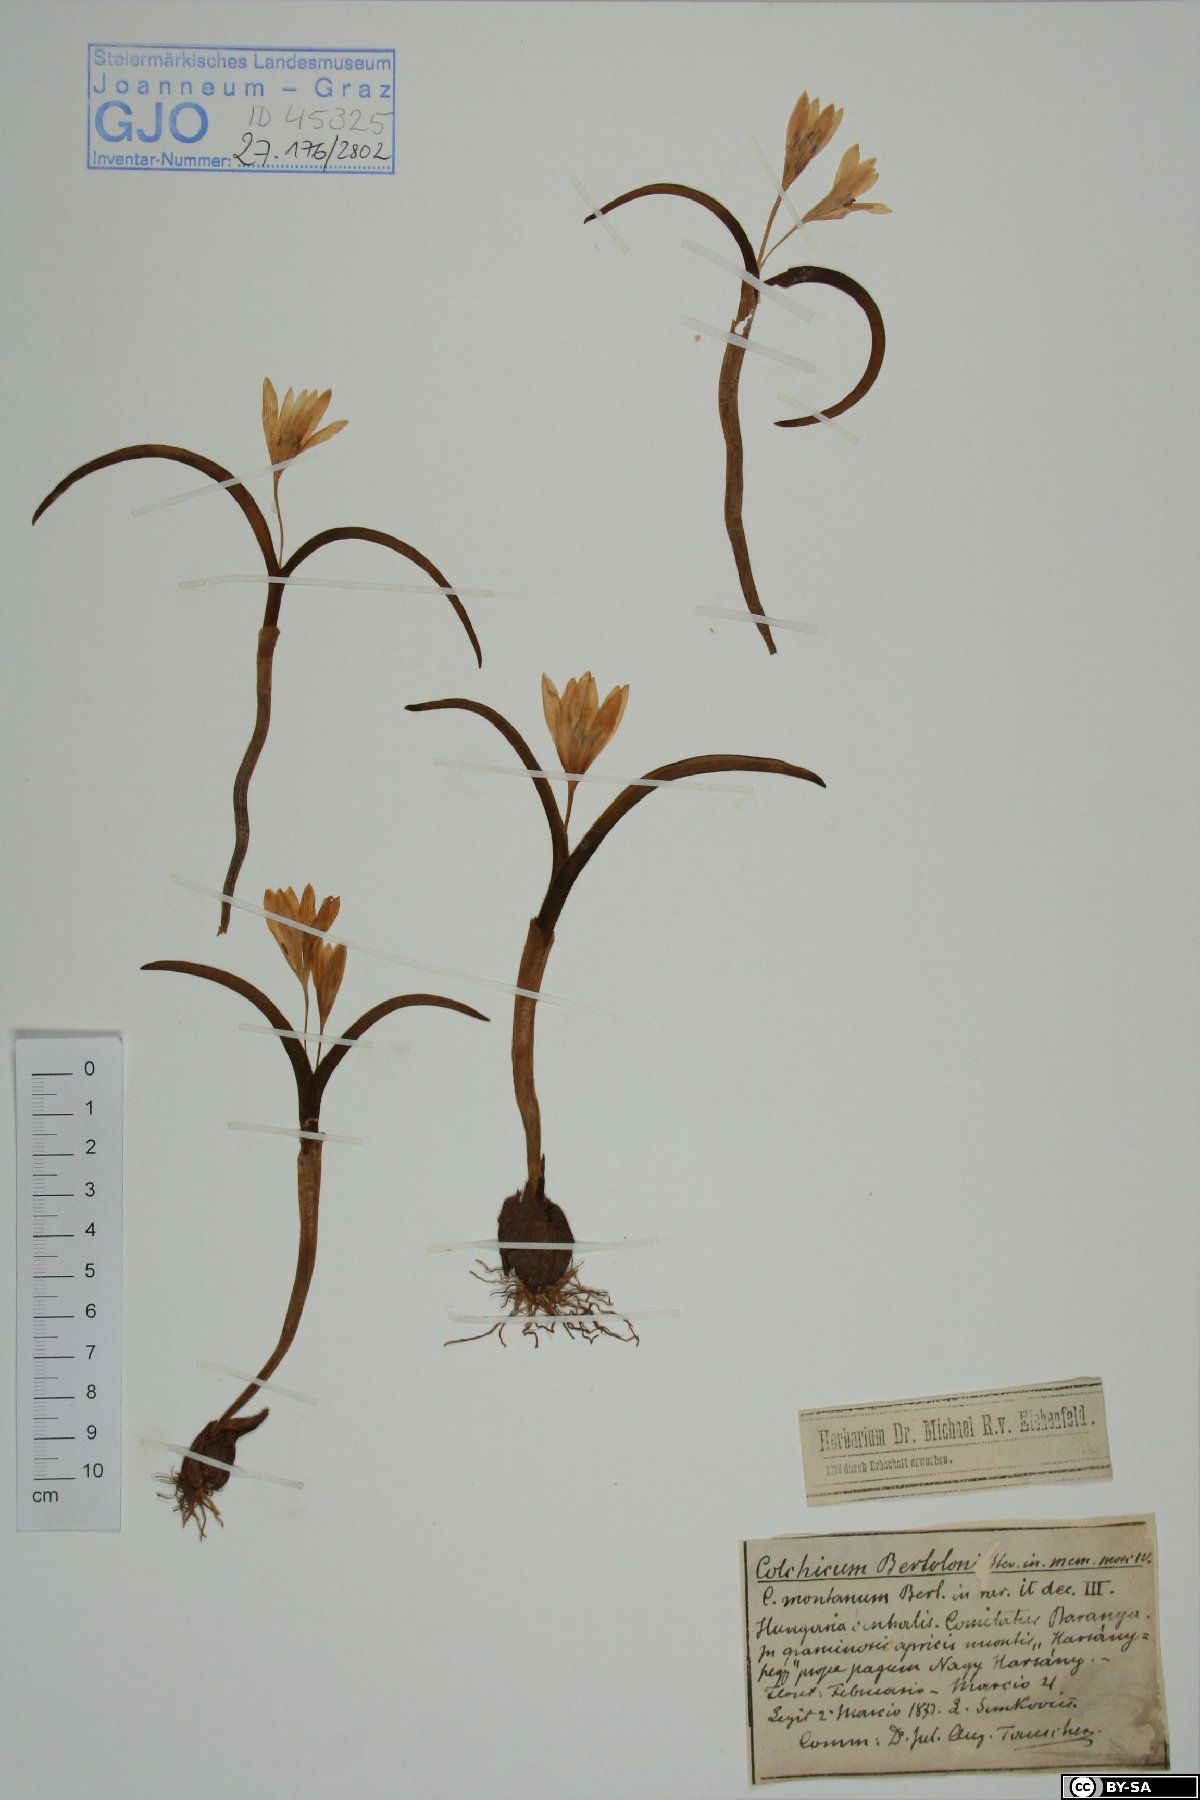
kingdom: Plantae
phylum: Tracheophyta
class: Liliopsida
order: Liliales
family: Colchicaceae
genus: Colchicum
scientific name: Colchicum cupanii
